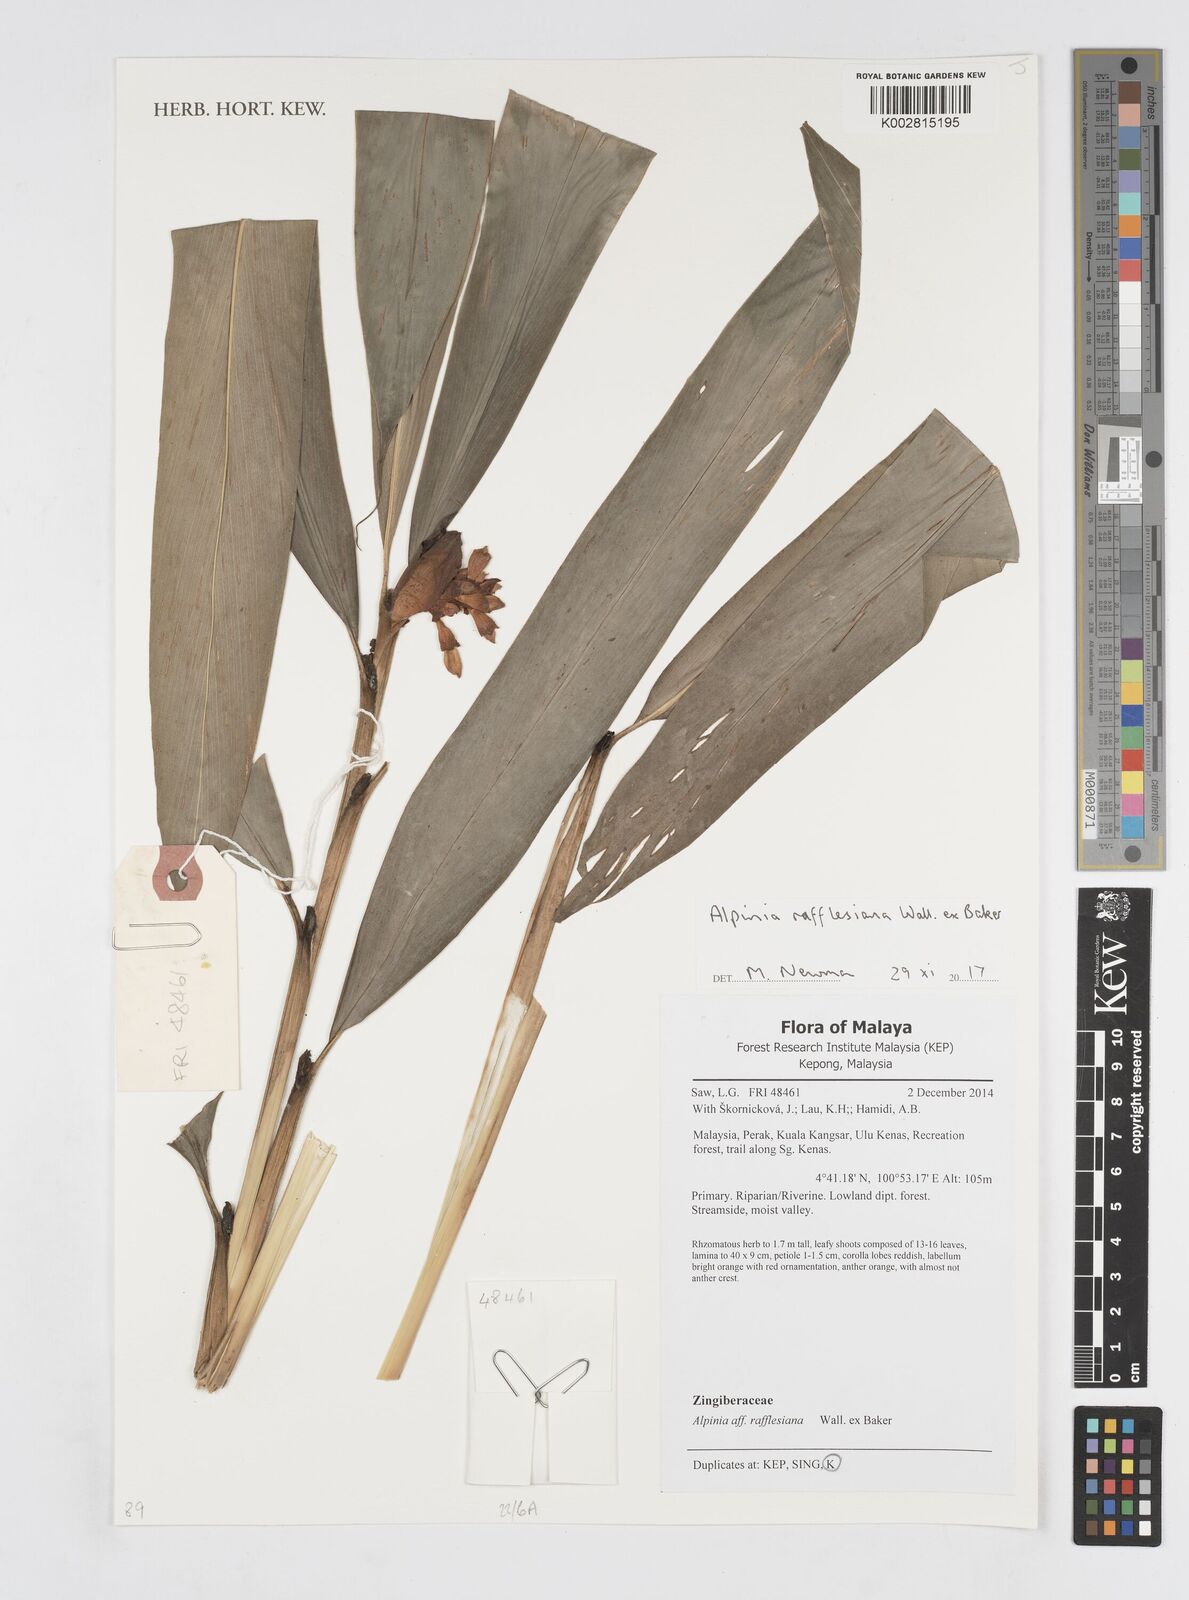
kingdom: Plantae
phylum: Tracheophyta
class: Liliopsida
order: Zingiberales
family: Zingiberaceae
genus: Alpinia
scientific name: Alpinia rafflesiana
